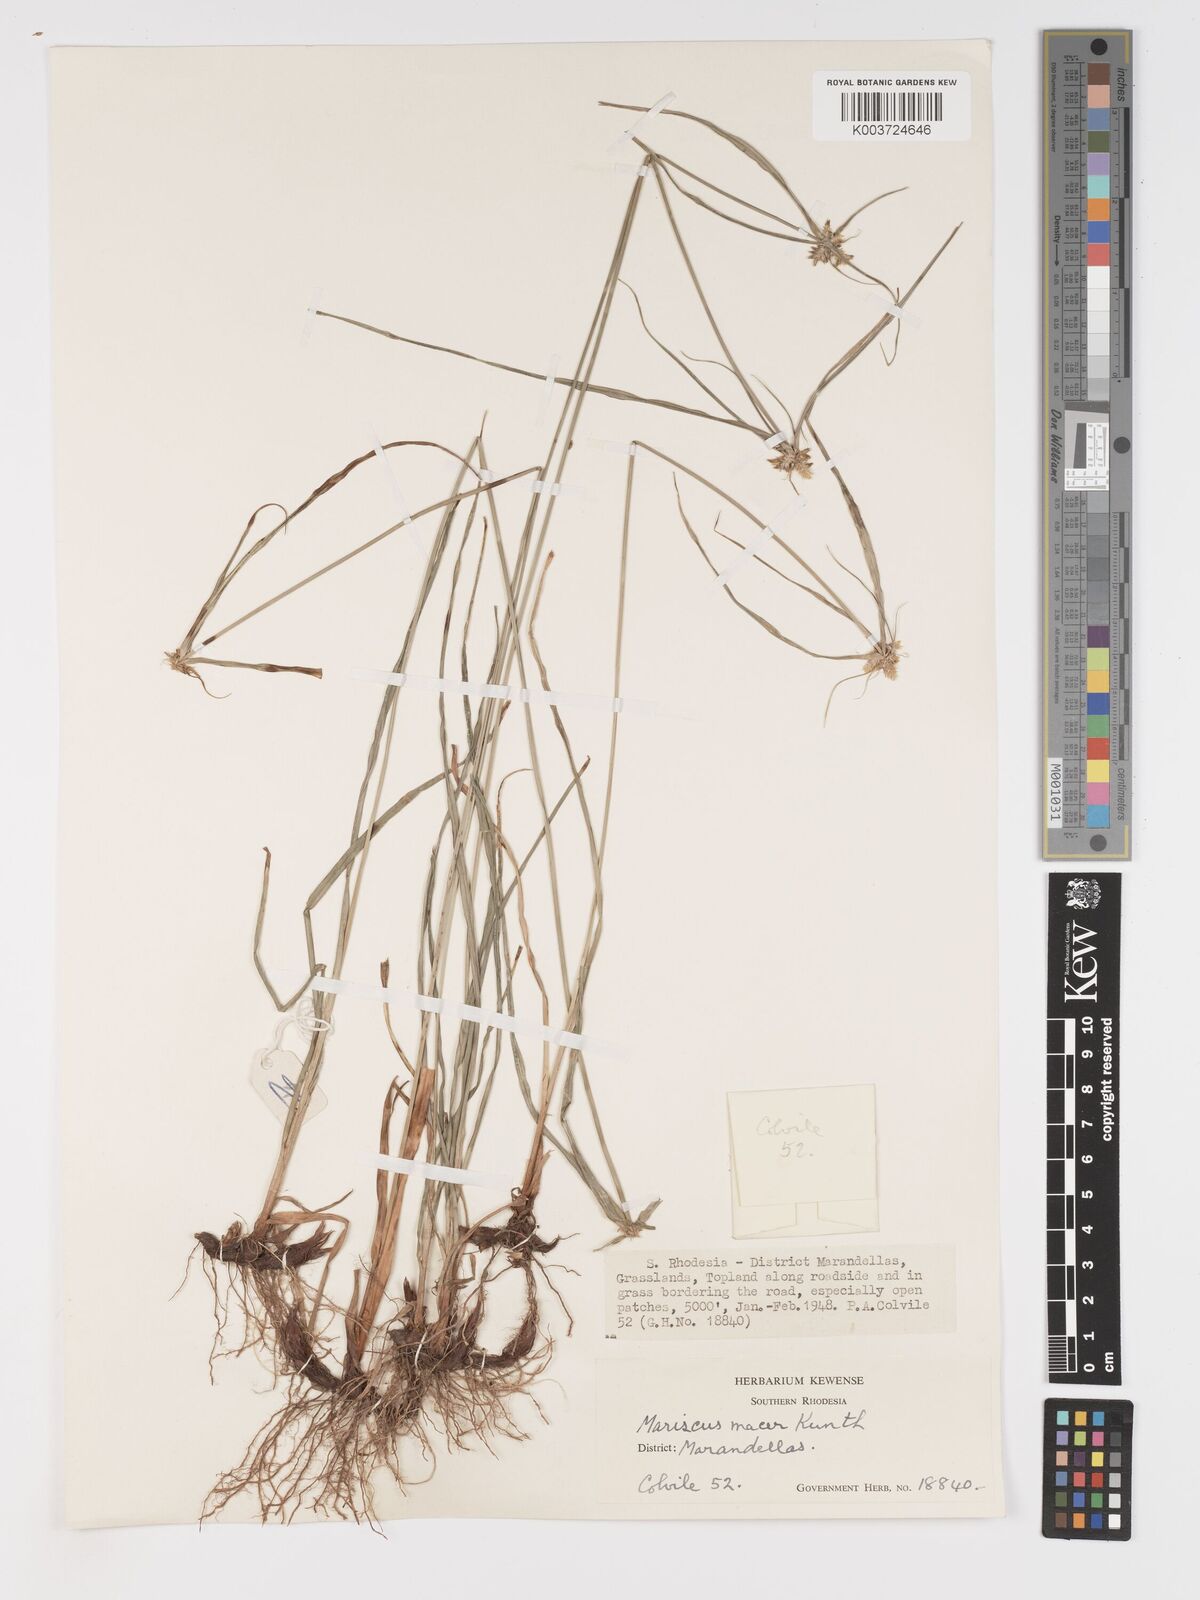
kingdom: Plantae
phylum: Tracheophyta
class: Liliopsida
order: Poales
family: Cyperaceae
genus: Cyperus
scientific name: Cyperus myrmecias
